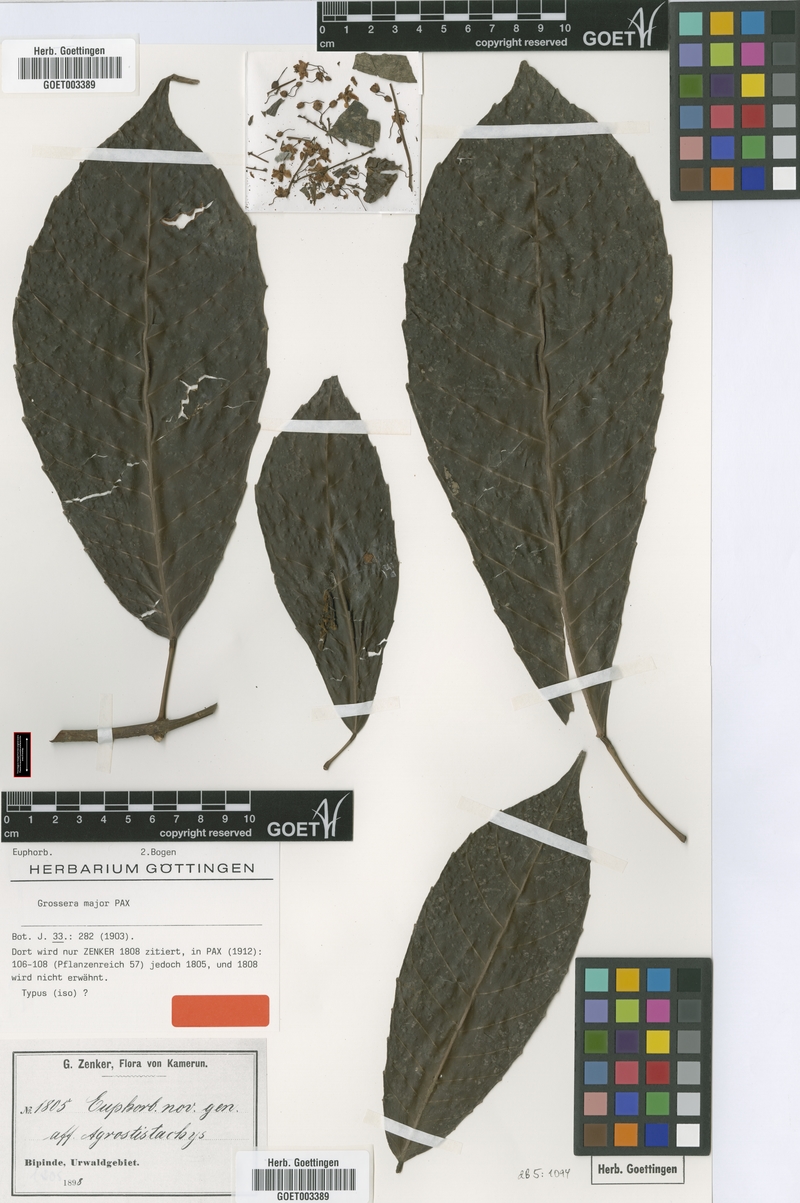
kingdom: Plantae
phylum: Tracheophyta
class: Magnoliopsida
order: Malpighiales
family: Euphorbiaceae
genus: Grossera
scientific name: Grossera major
